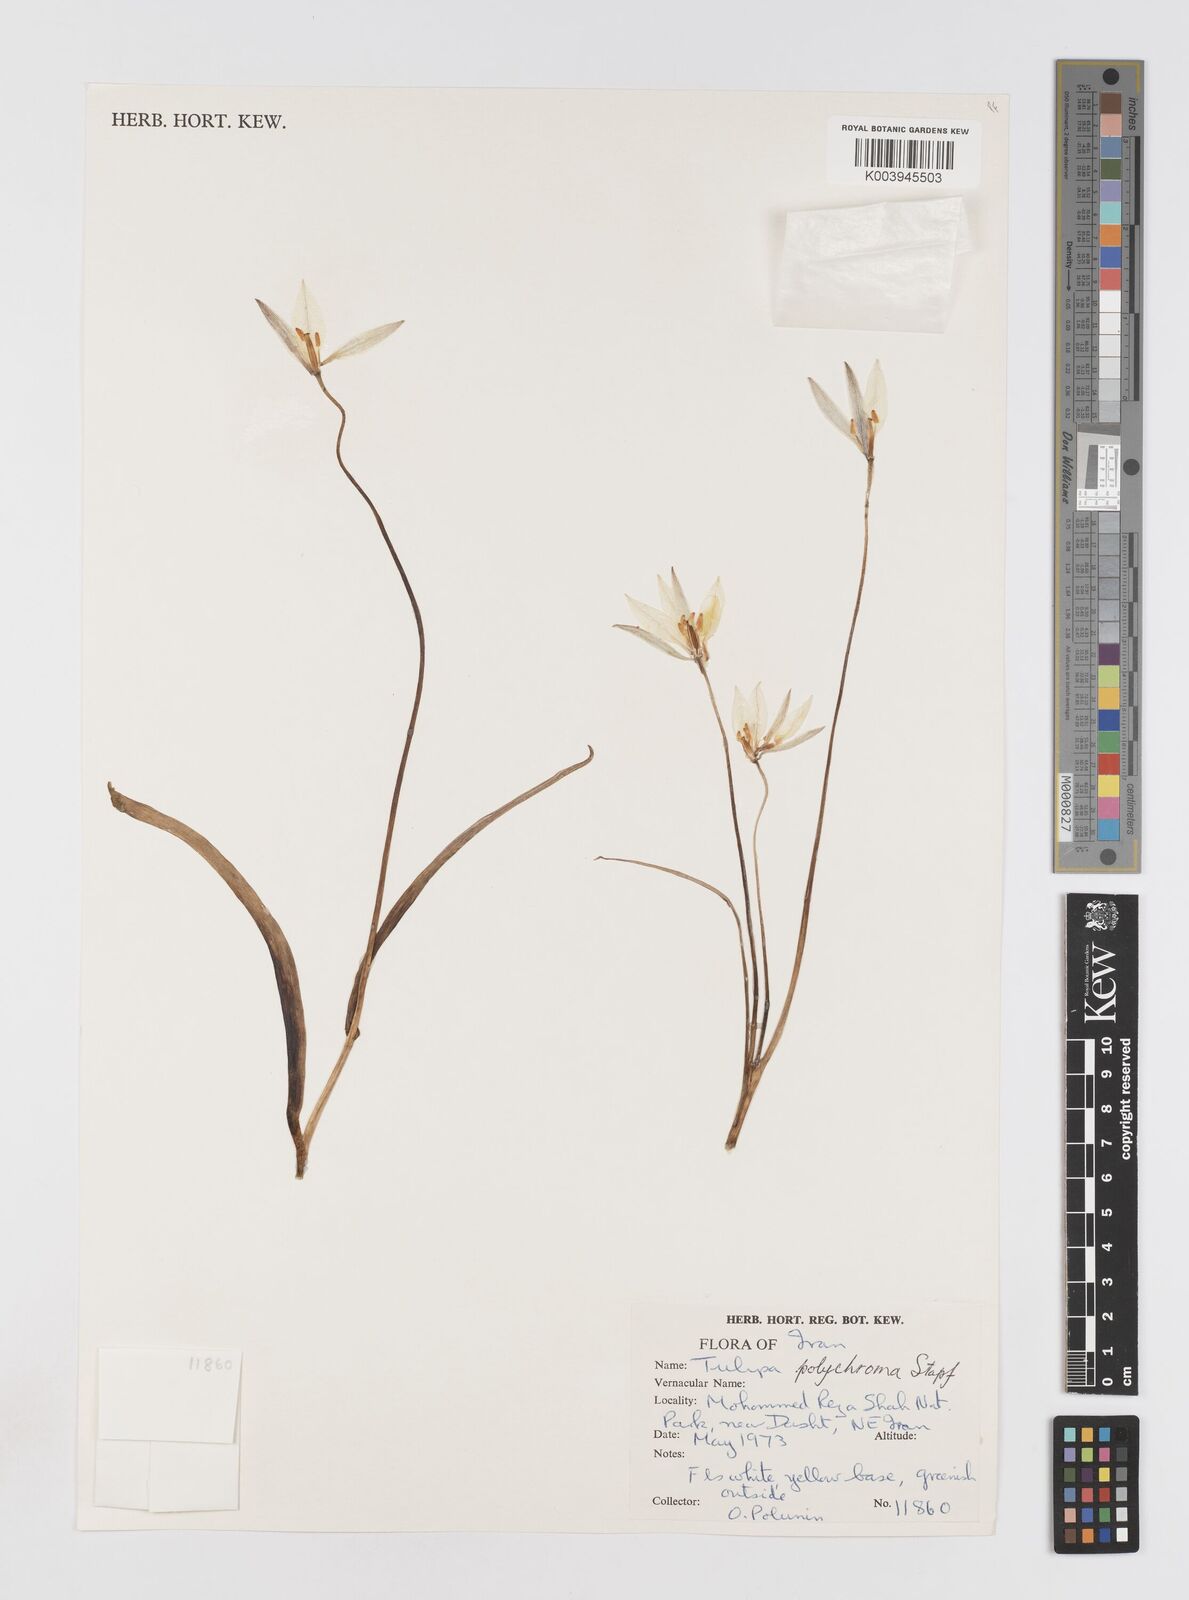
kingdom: Plantae
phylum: Tracheophyta
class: Liliopsida
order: Liliales
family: Liliaceae
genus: Tulipa
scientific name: Tulipa biflora
